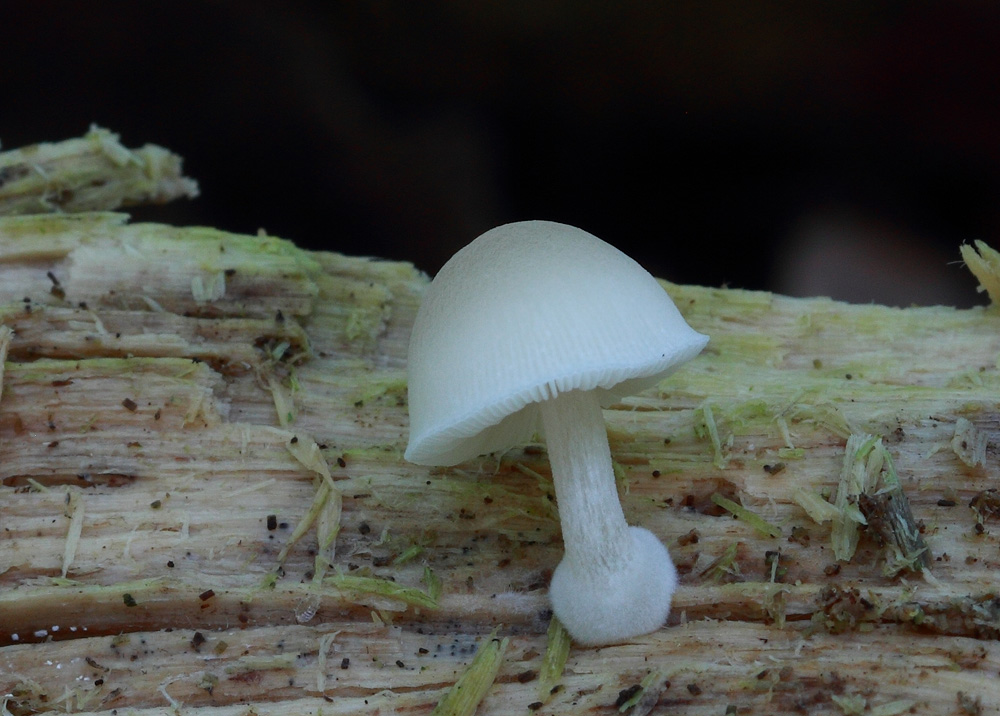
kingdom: Fungi
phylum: Basidiomycota
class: Agaricomycetes
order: Agaricales
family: Pluteaceae
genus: Pluteus
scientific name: Pluteus semibulbosus
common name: knoldet skærmhat
